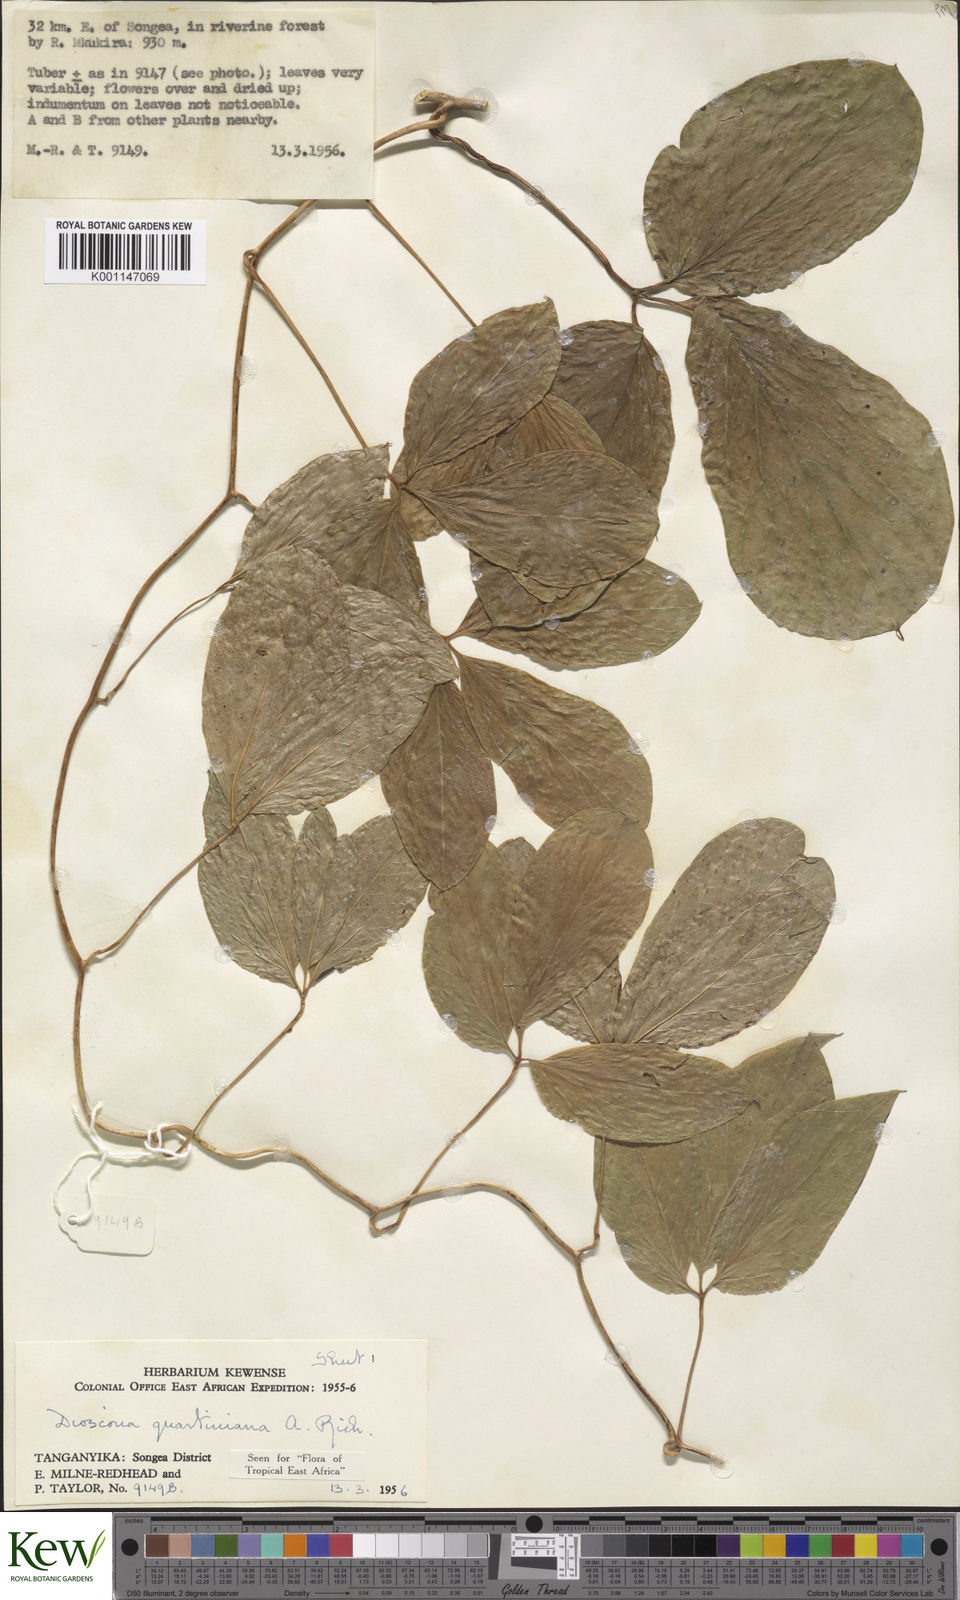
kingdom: Plantae
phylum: Tracheophyta
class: Liliopsida
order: Dioscoreales
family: Dioscoreaceae
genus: Dioscorea
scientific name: Dioscorea quartiniana
